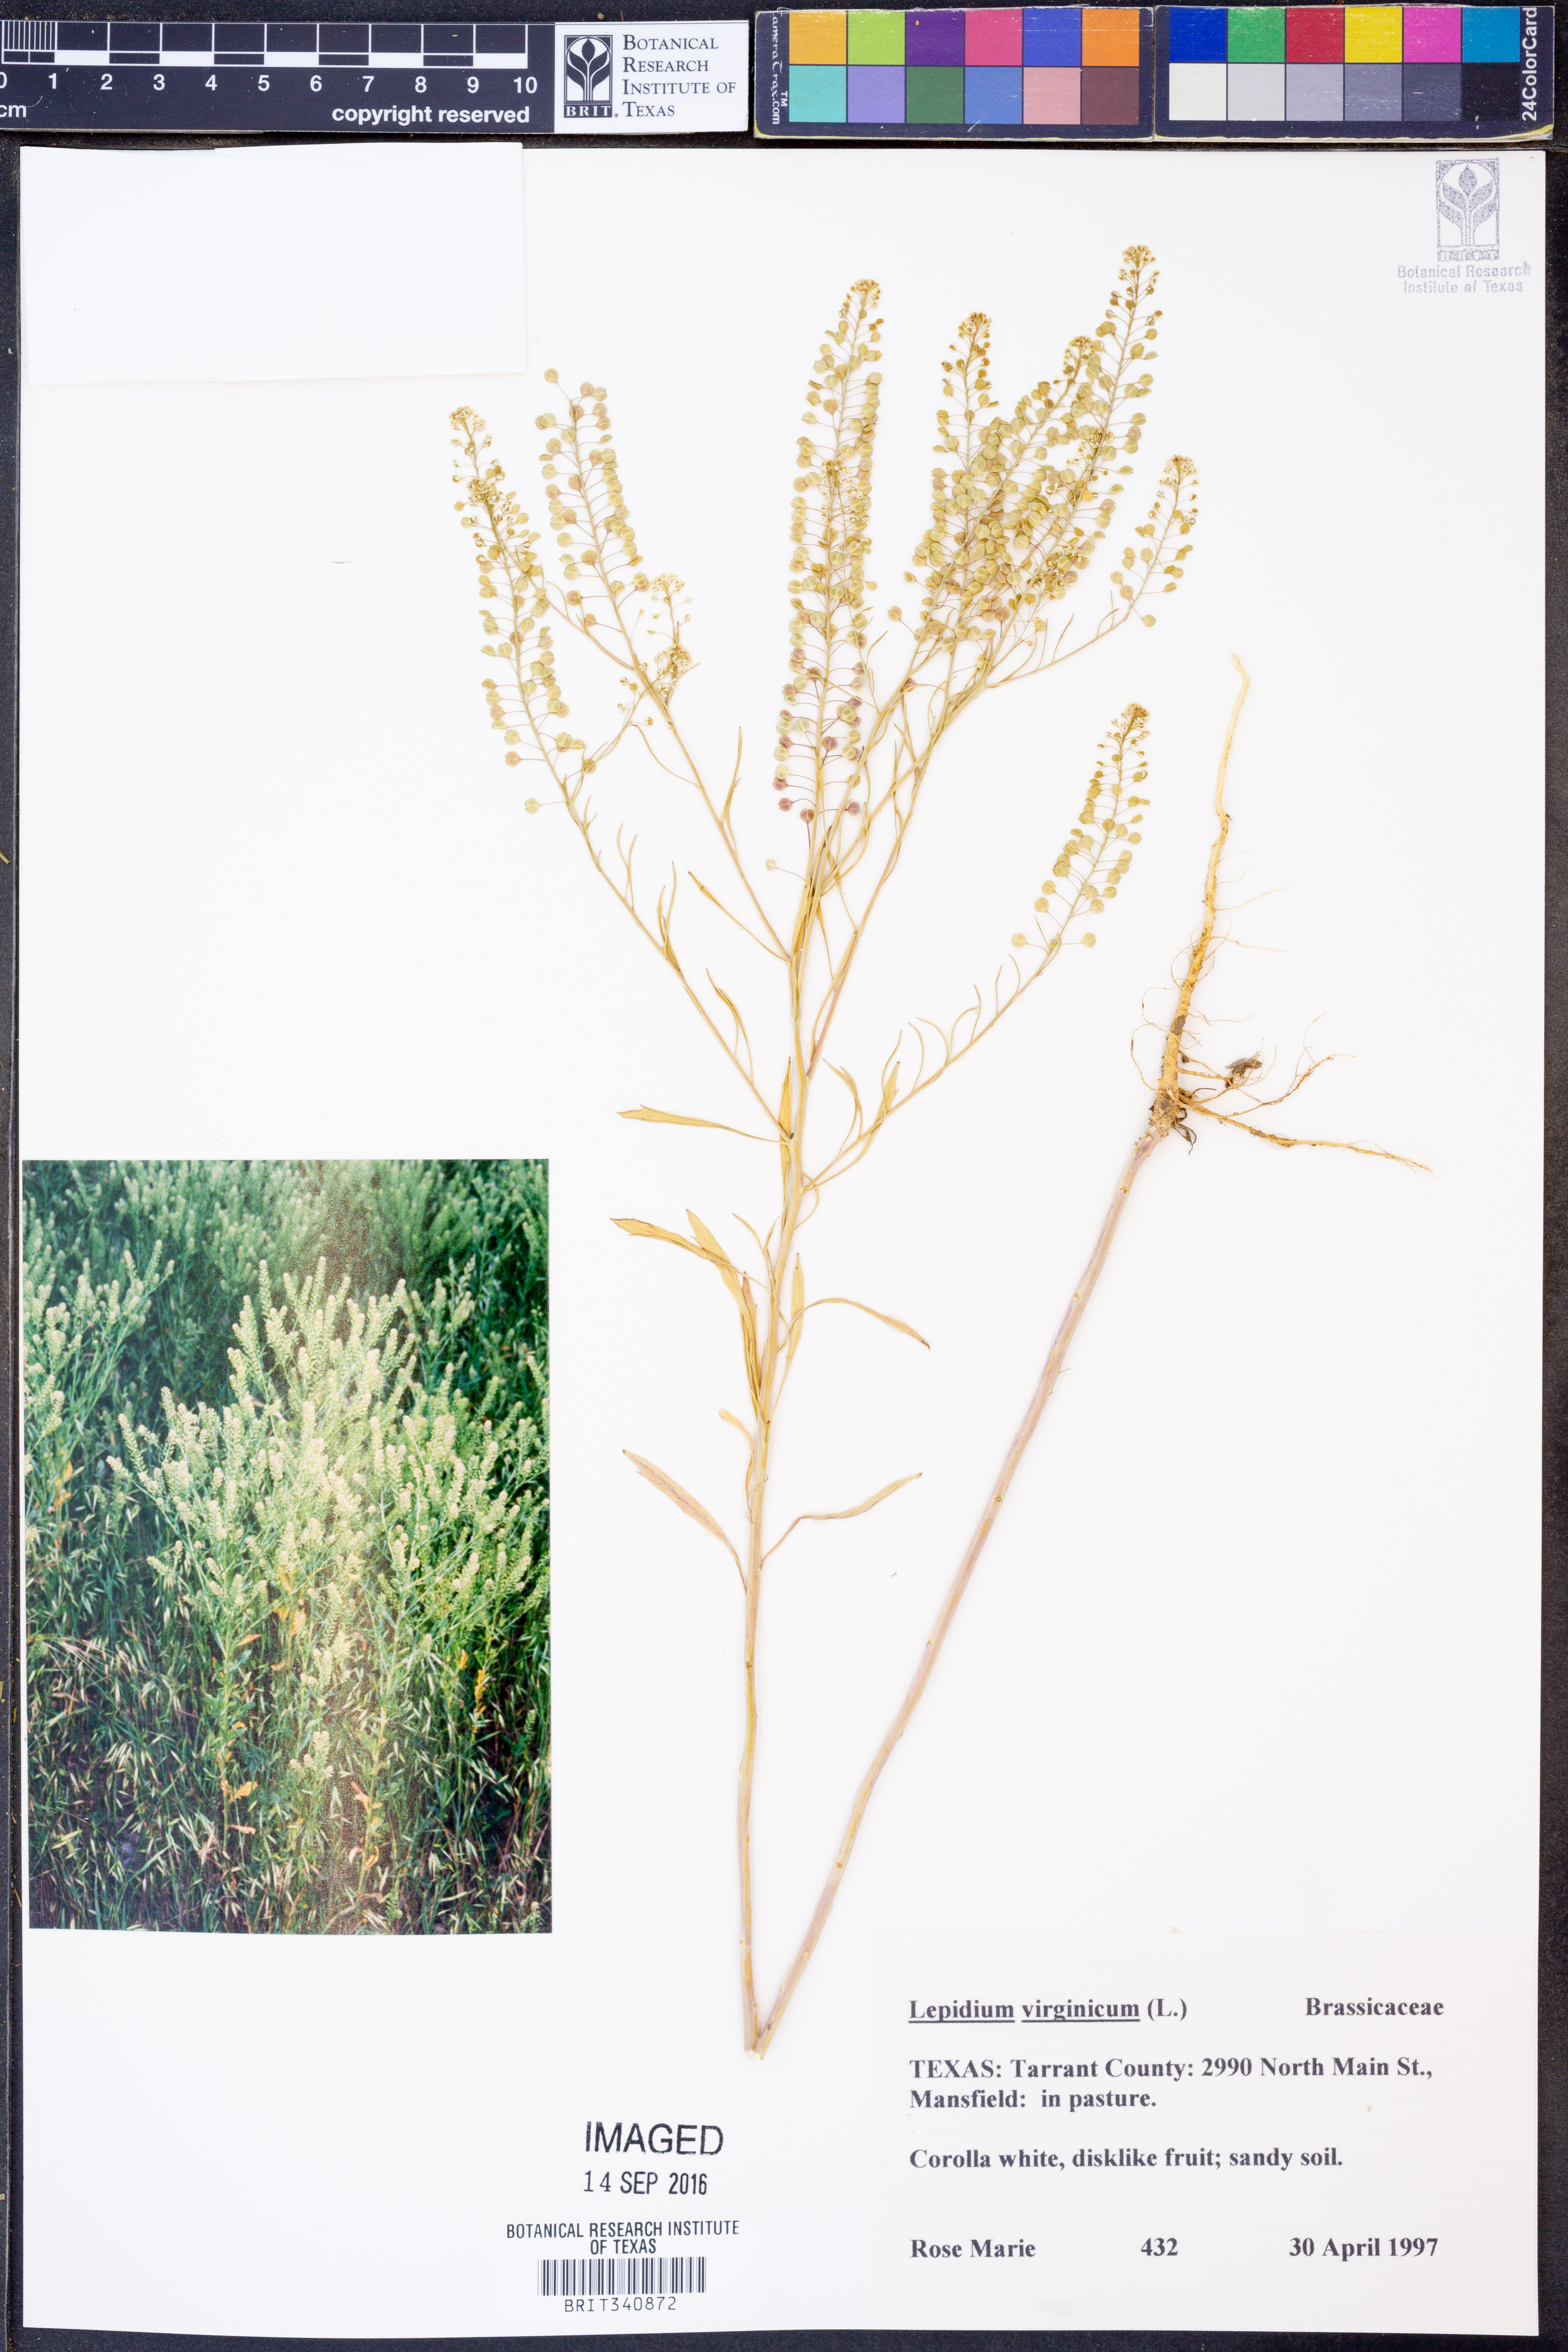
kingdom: Plantae
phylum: Tracheophyta
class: Magnoliopsida
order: Brassicales
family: Brassicaceae
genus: Lepidium
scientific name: Lepidium virginicum
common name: Least pepperwort
